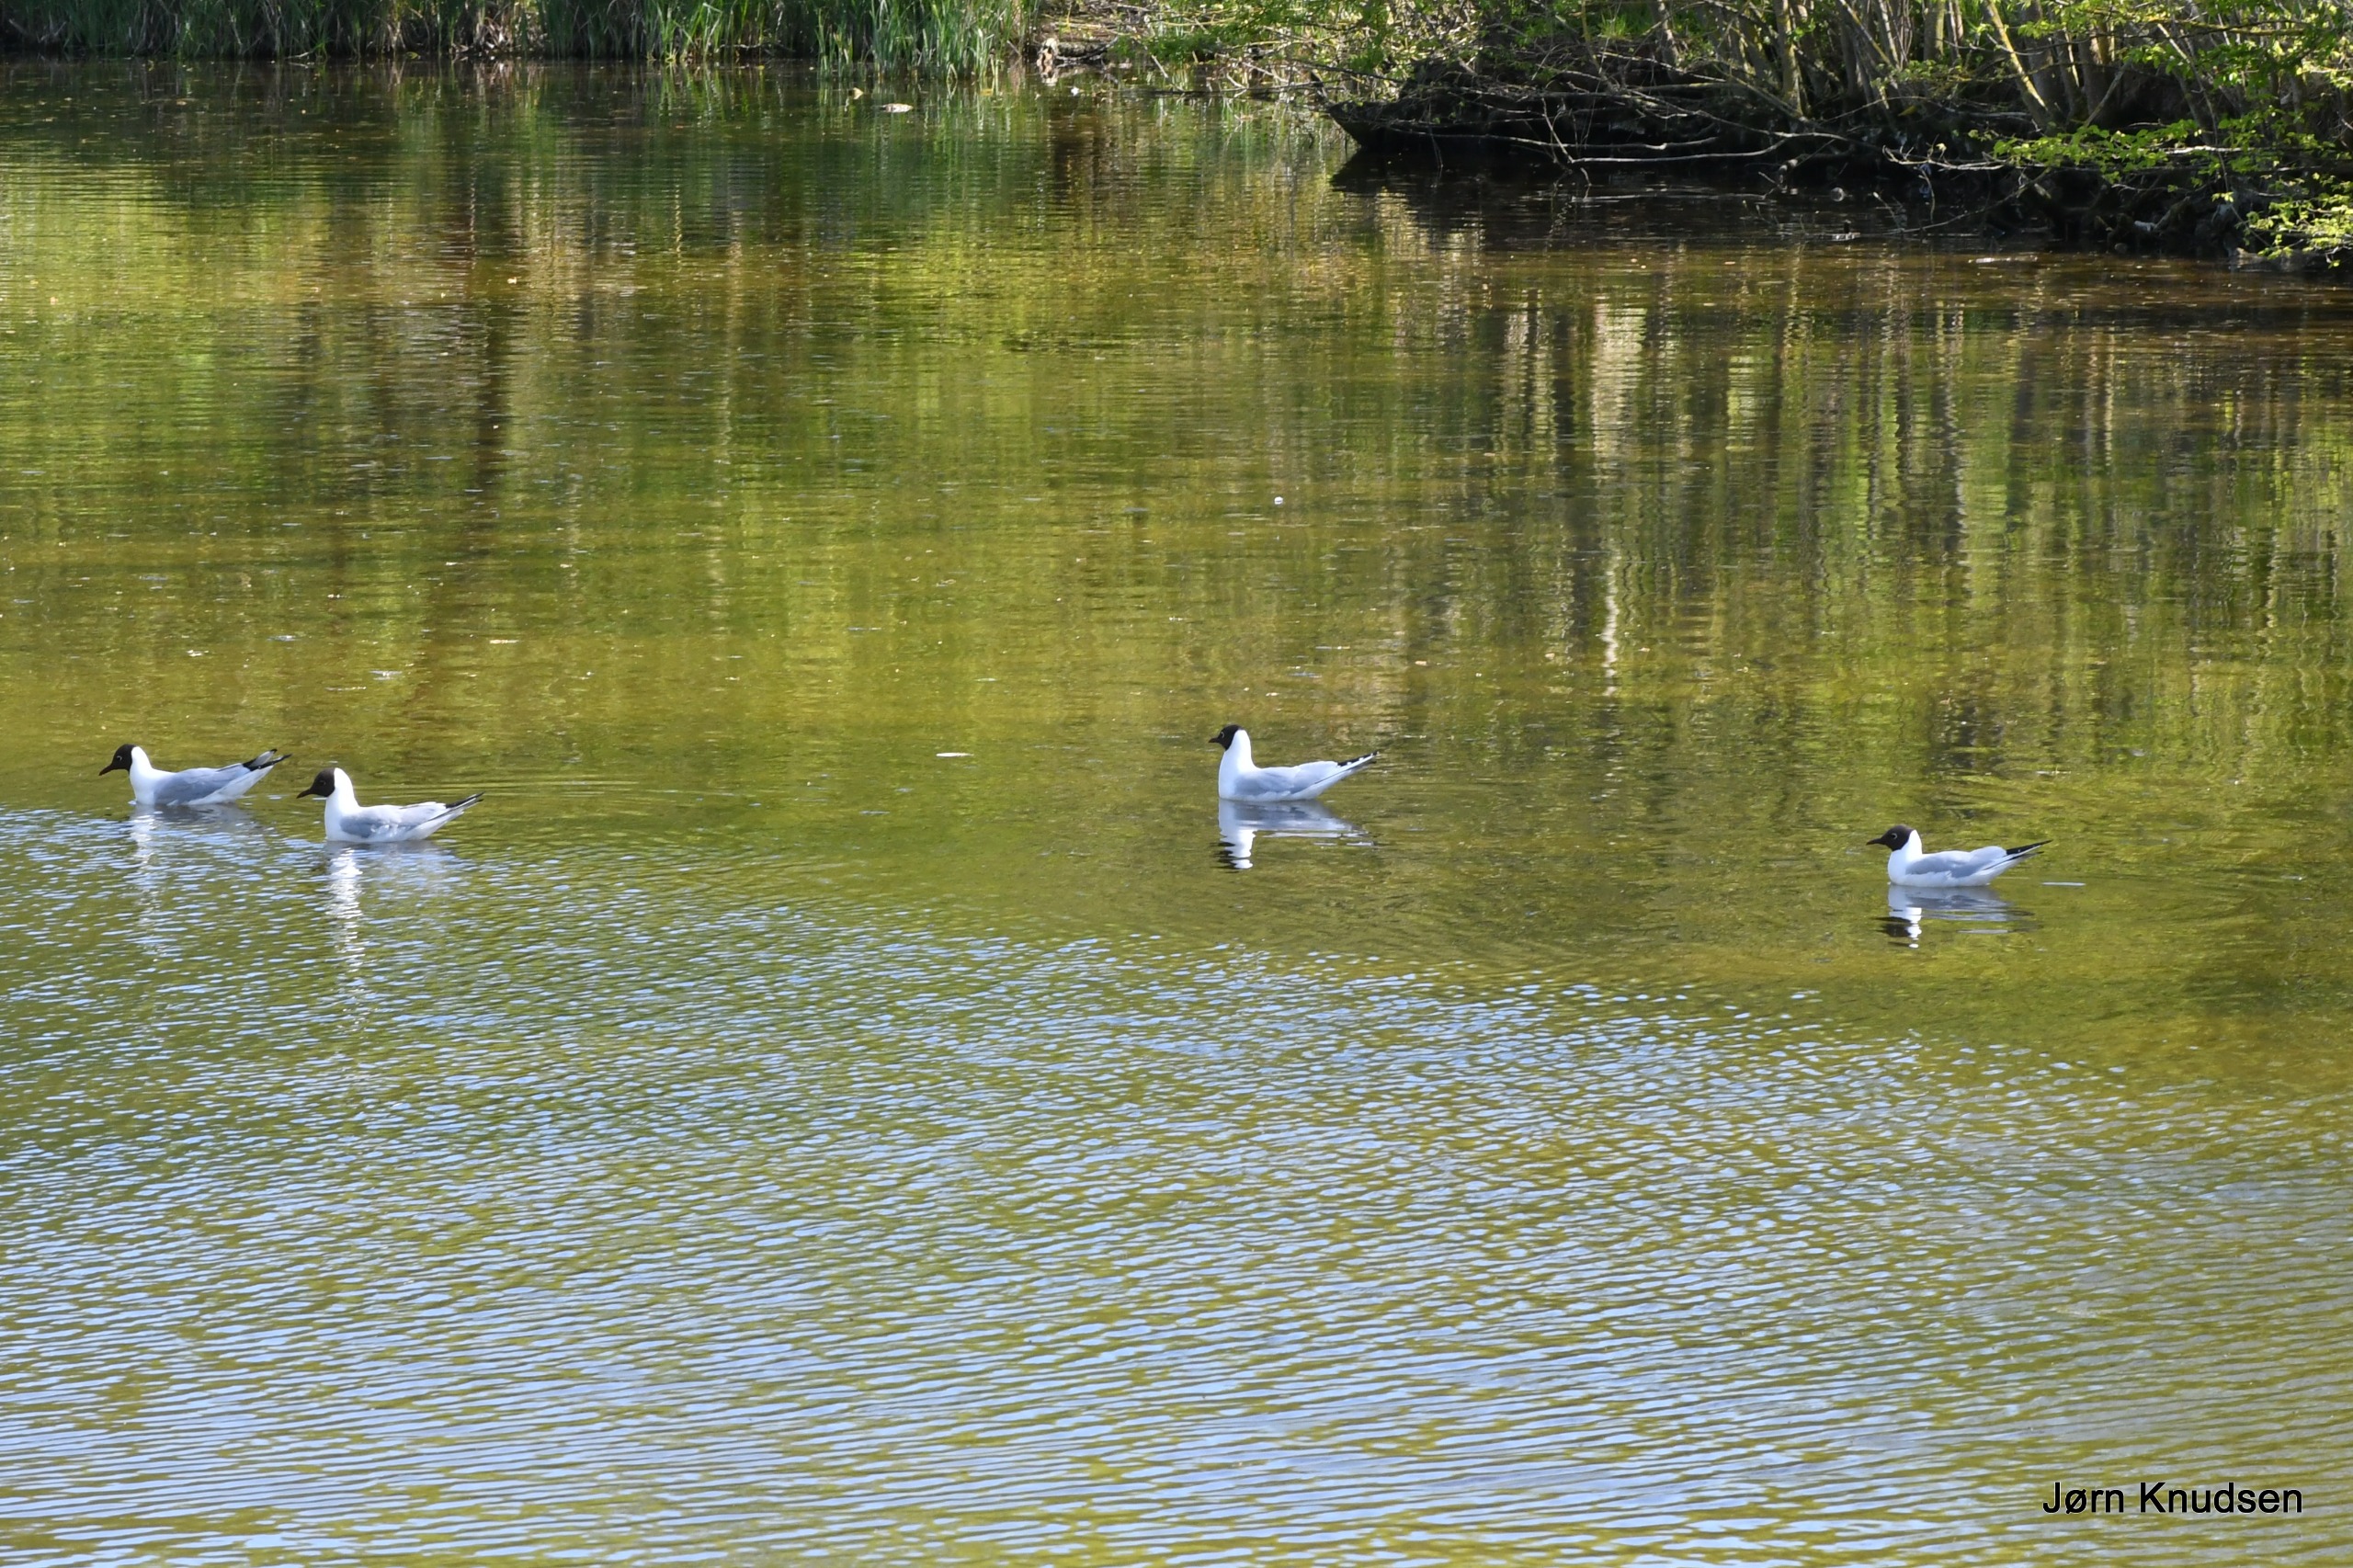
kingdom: Animalia
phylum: Chordata
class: Aves
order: Charadriiformes
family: Laridae
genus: Chroicocephalus
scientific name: Chroicocephalus ridibundus
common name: Hættemåge
